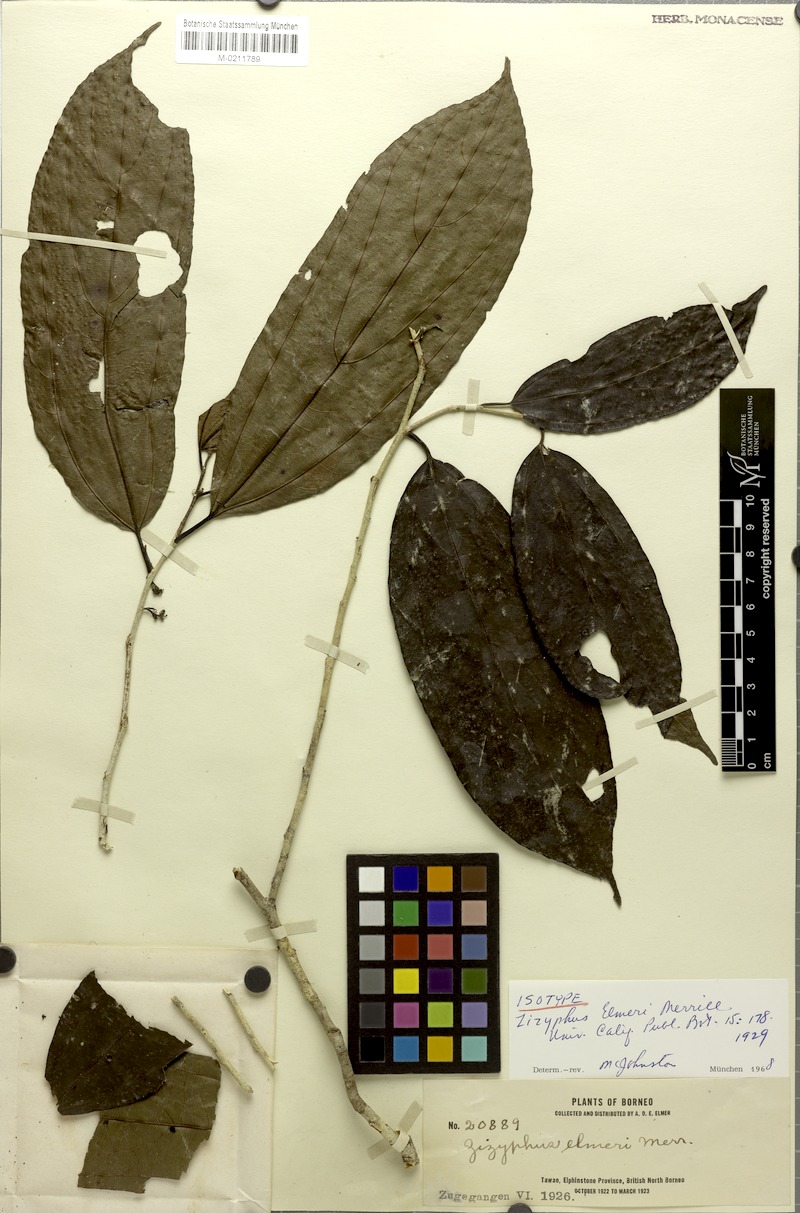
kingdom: Plantae
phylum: Tracheophyta
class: Magnoliopsida
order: Rosales
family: Rhamnaceae
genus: Colubrina
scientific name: Colubrina beccariana
